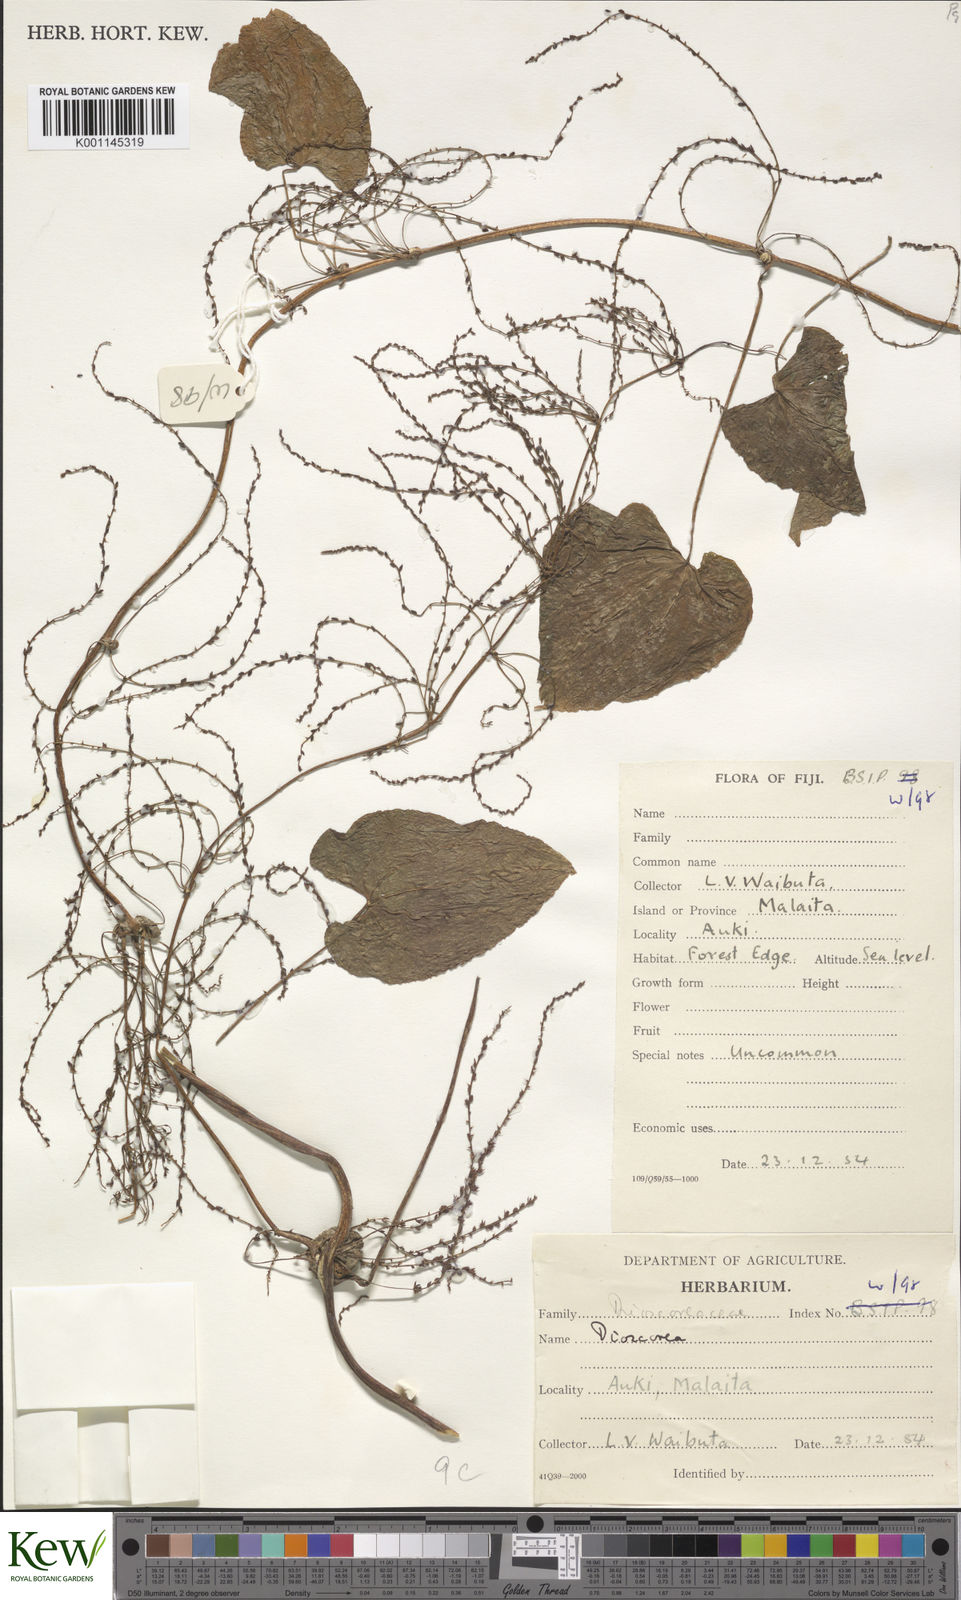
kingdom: Plantae
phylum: Tracheophyta
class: Liliopsida
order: Dioscoreales
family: Dioscoreaceae
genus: Dioscorea
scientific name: Dioscorea
